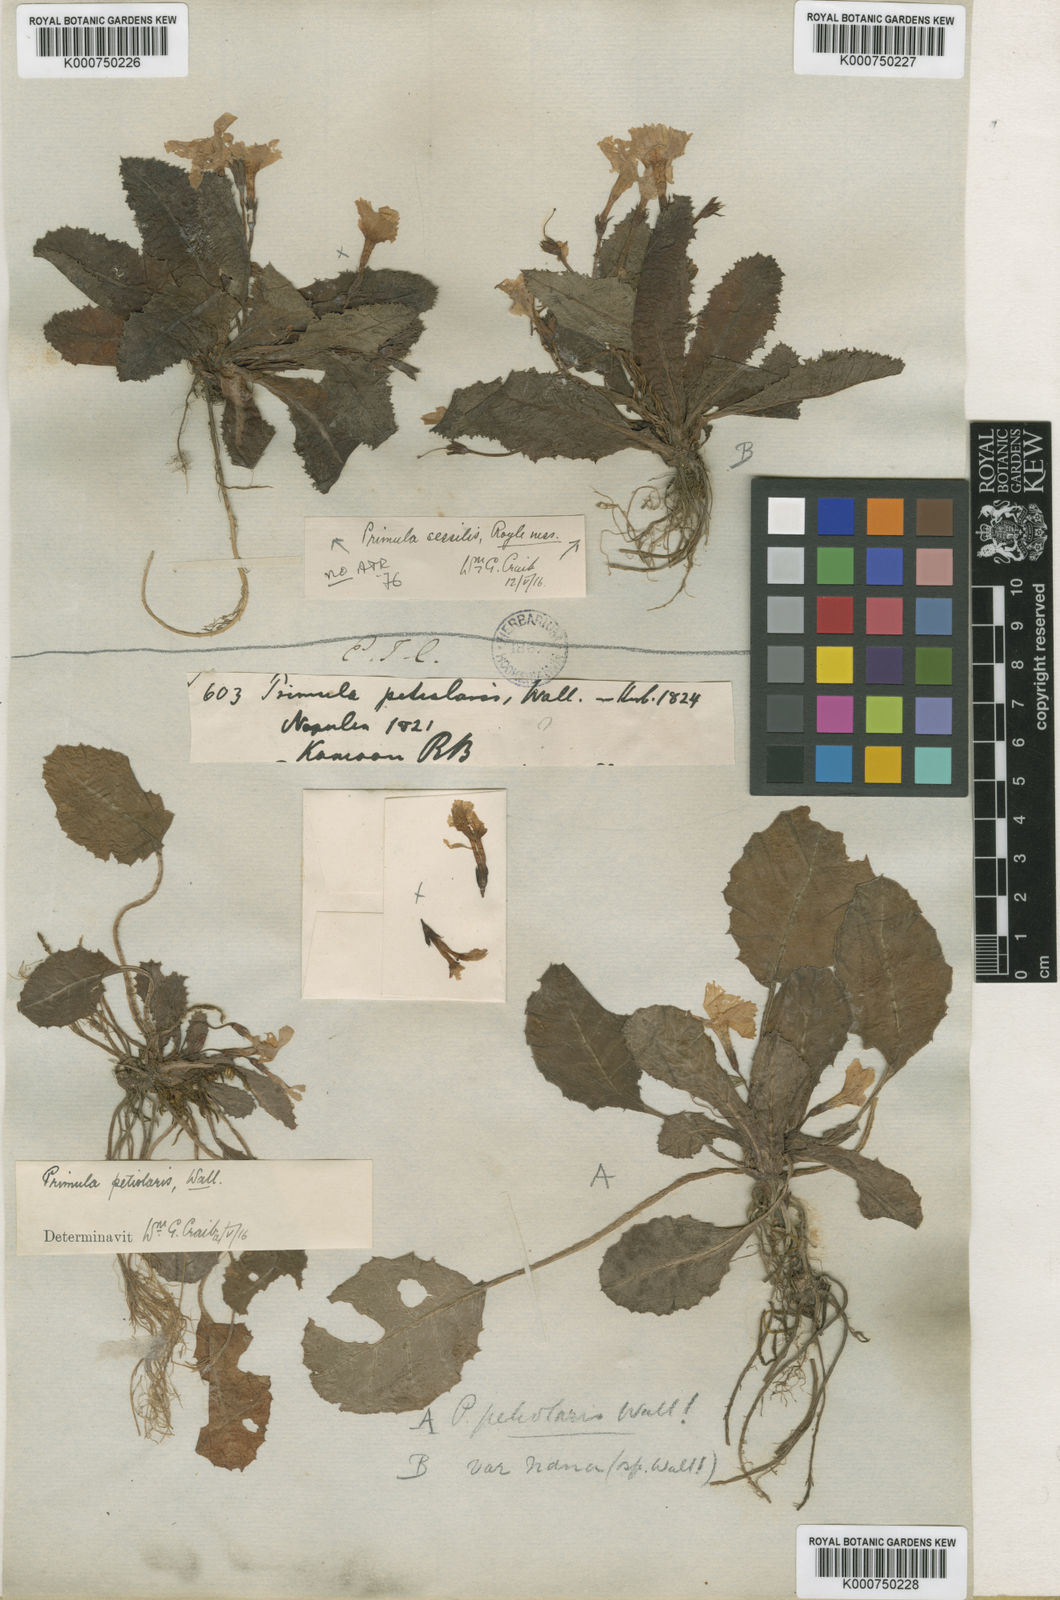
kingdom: Plantae
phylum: Tracheophyta
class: Magnoliopsida
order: Ericales
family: Primulaceae
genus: Primula
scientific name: Primula petiolaris
